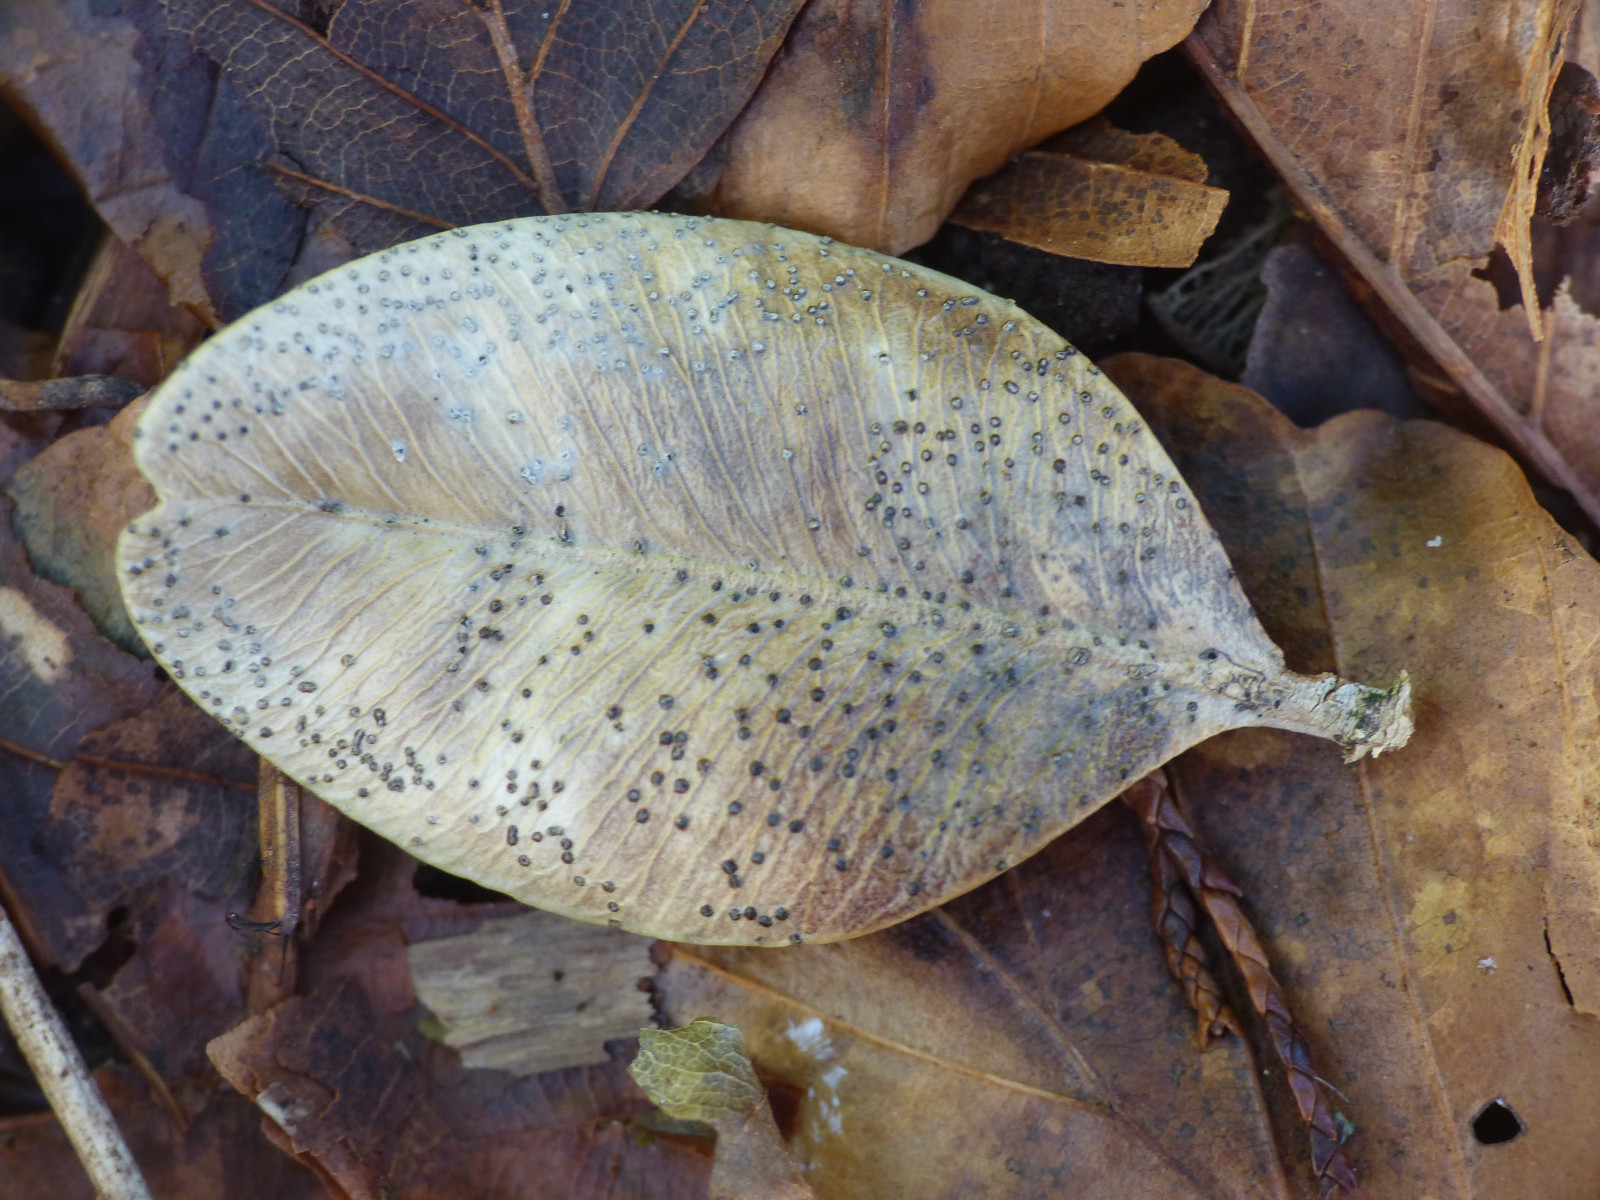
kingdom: Fungi
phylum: Ascomycota
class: Sordariomycetes
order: Diaporthales
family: Diaporthaceae
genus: Diaporthe
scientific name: Diaporthe stictica
